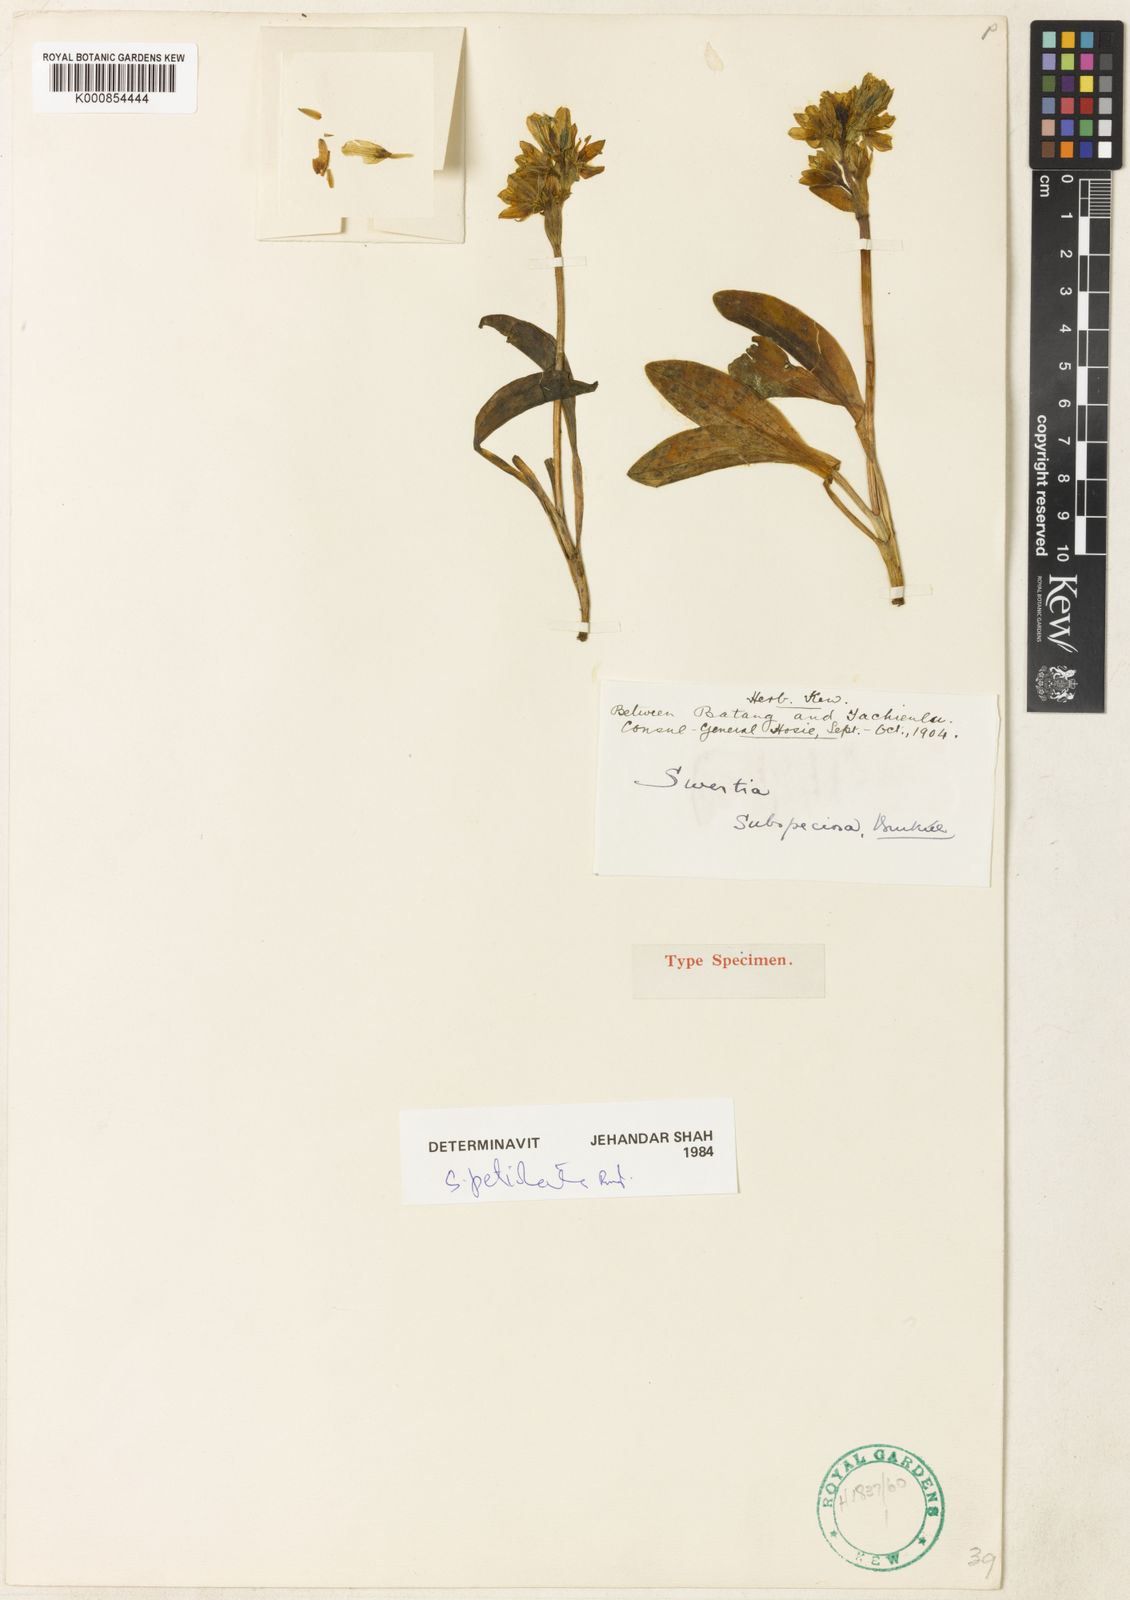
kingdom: Plantae
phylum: Tracheophyta
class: Magnoliopsida
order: Gentianales
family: Gentianaceae
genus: Swertia
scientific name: Swertia souliei
